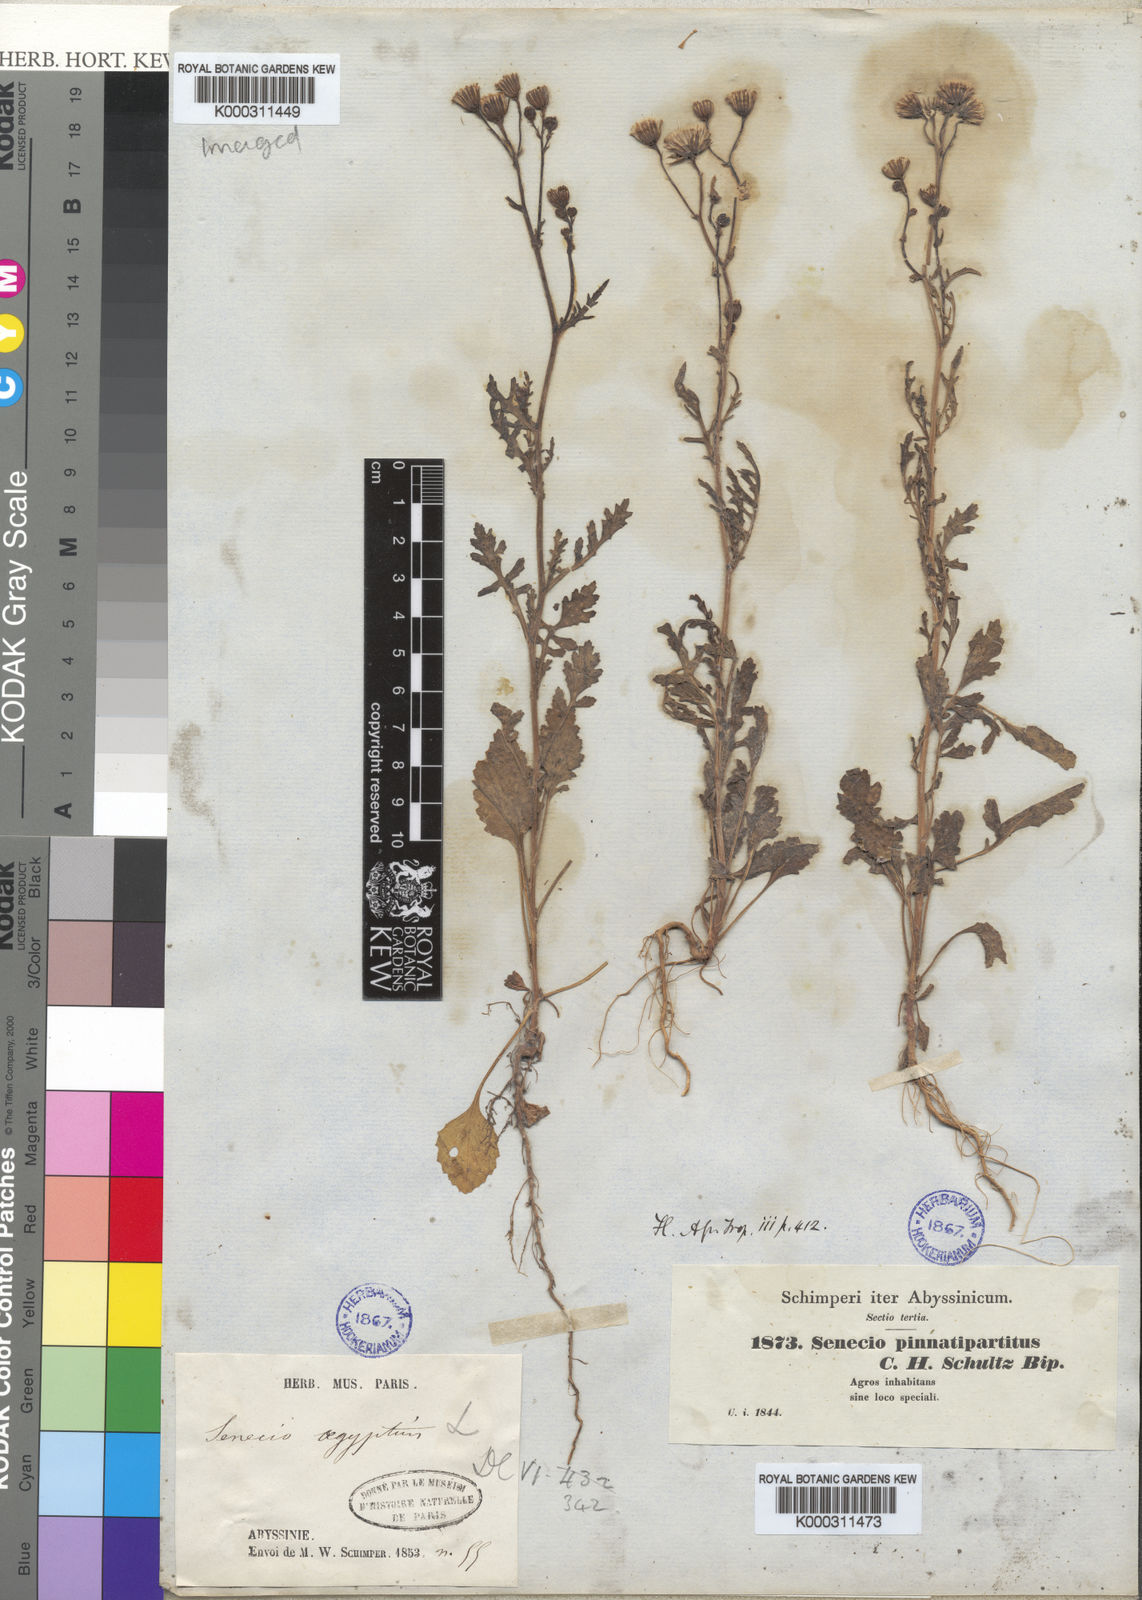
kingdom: Plantae
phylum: Tracheophyta
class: Magnoliopsida
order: Asterales
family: Asteraceae
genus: Senecio
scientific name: Senecio pinnatipartitus
